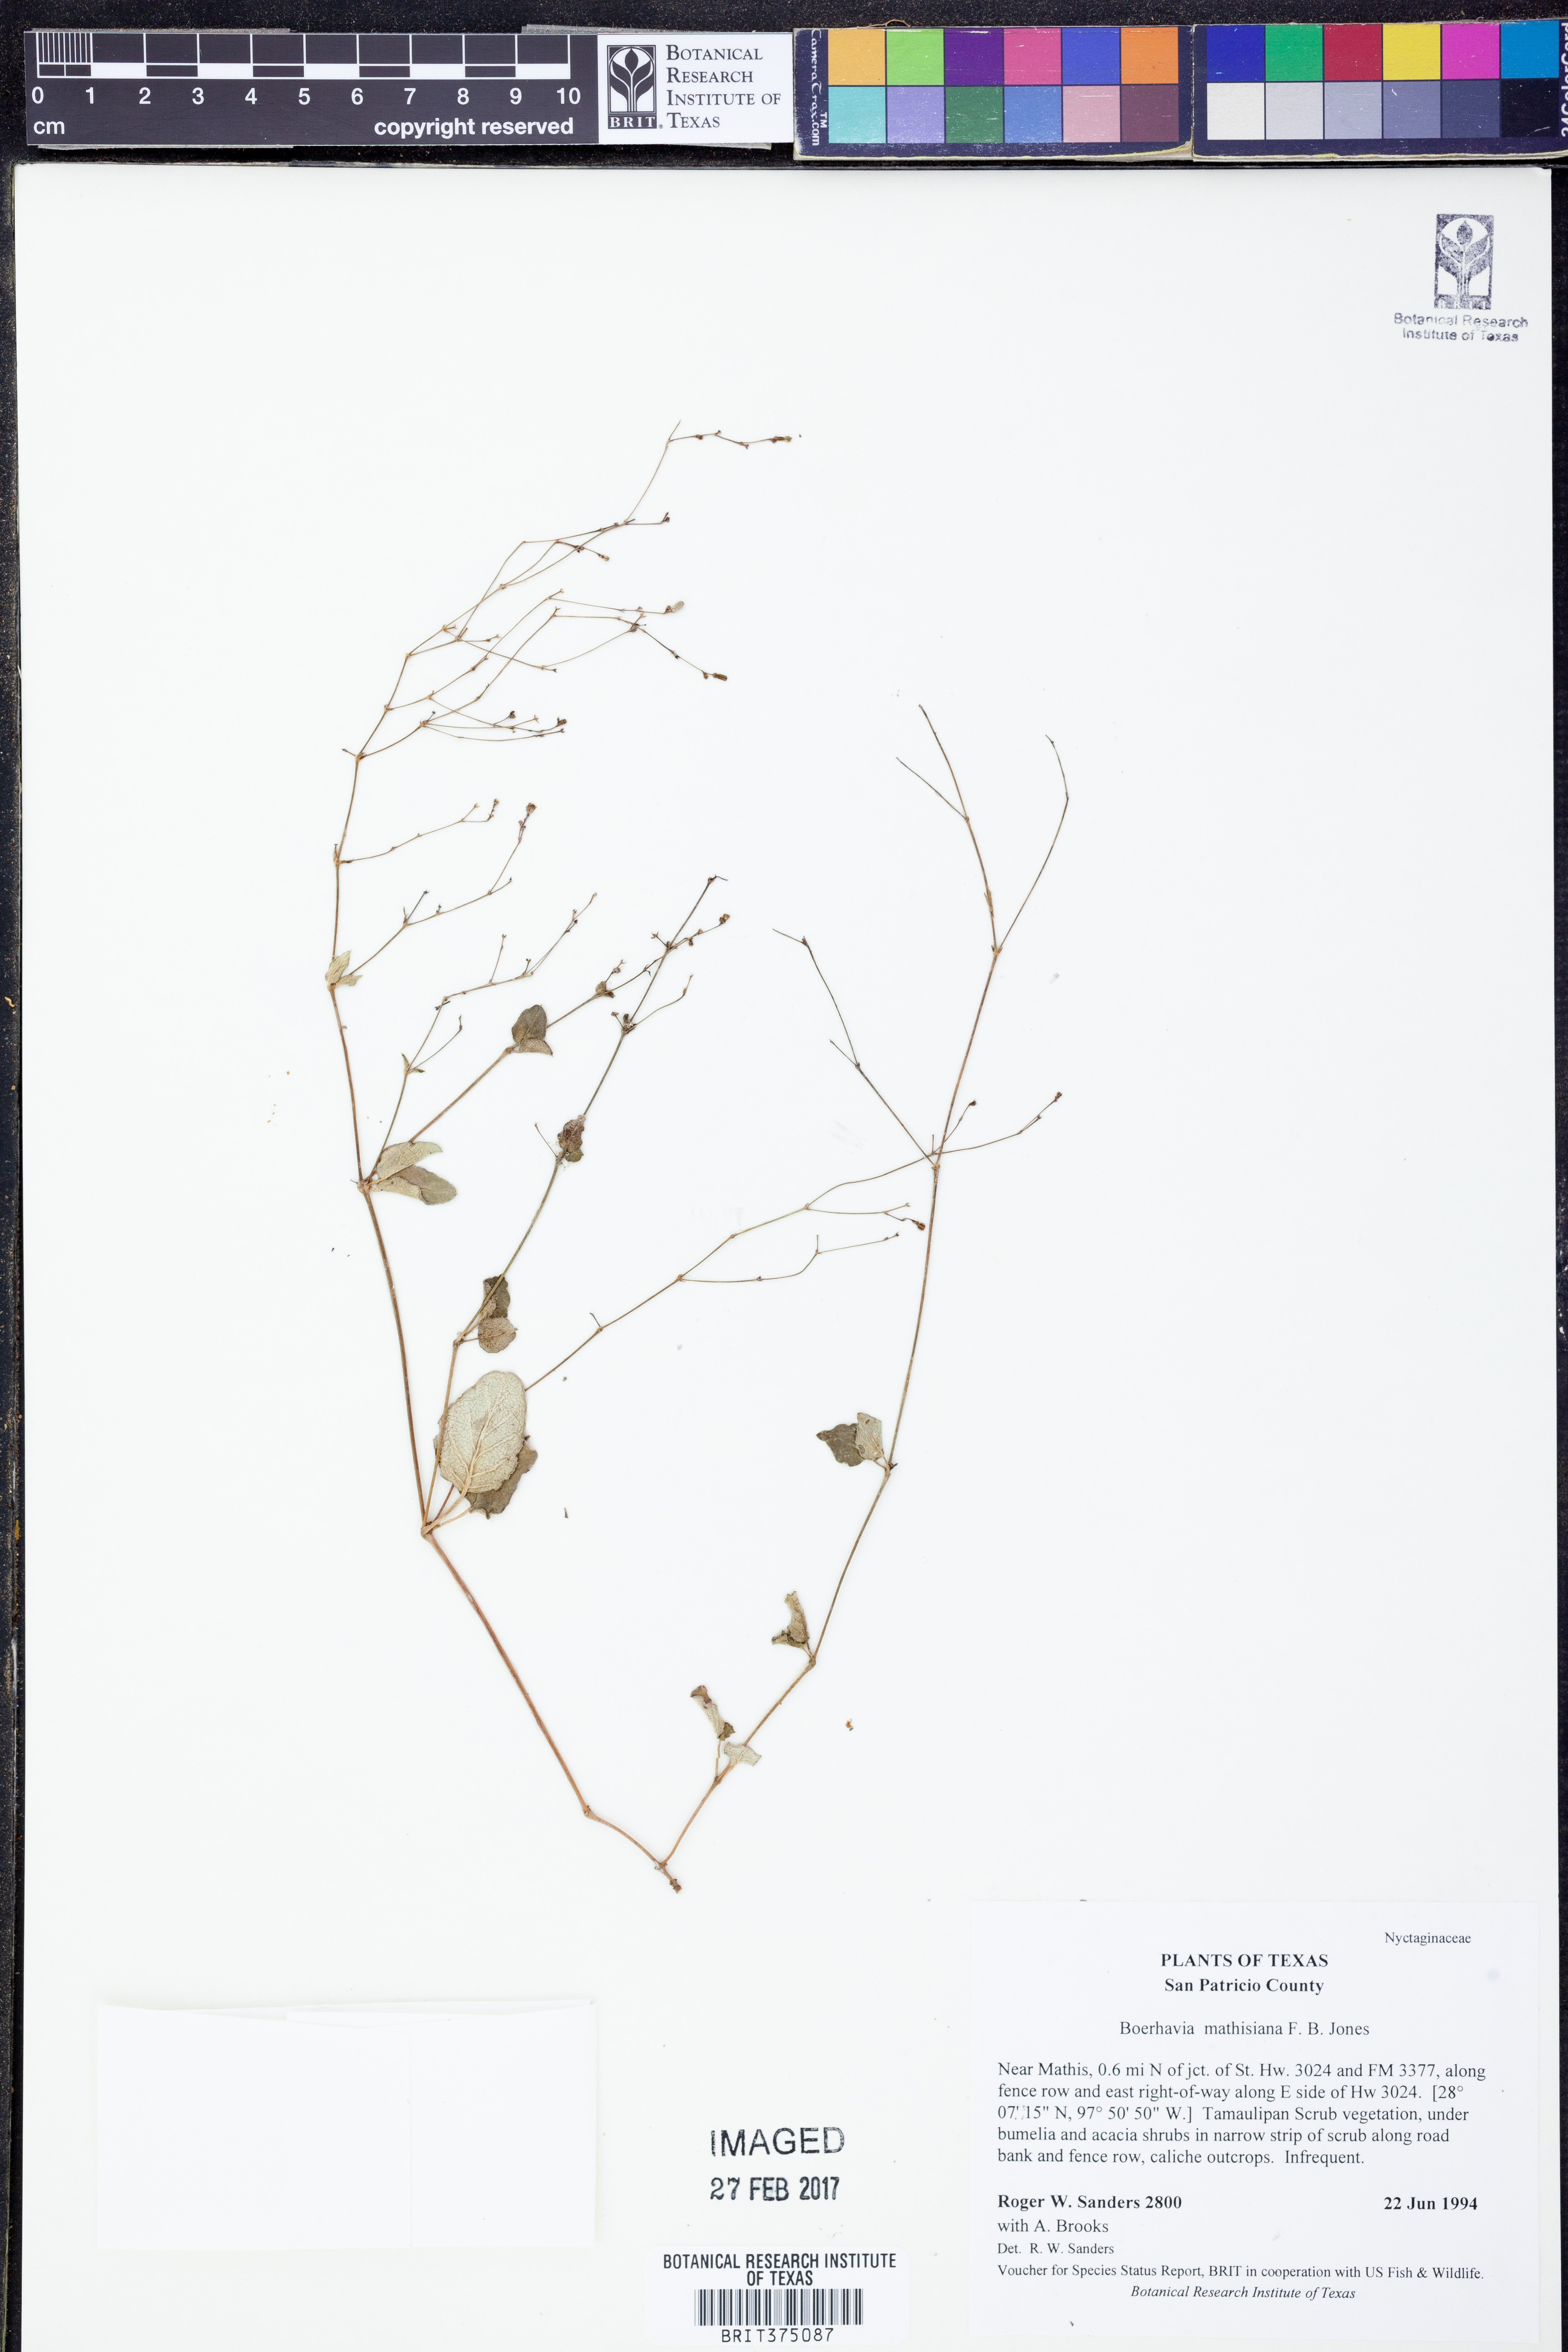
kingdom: Plantae
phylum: Tracheophyta
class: Magnoliopsida
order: Caryophyllales
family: Nyctaginaceae
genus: Boerhavia
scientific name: Boerhavia ciliata
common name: Mathis' spiderling
